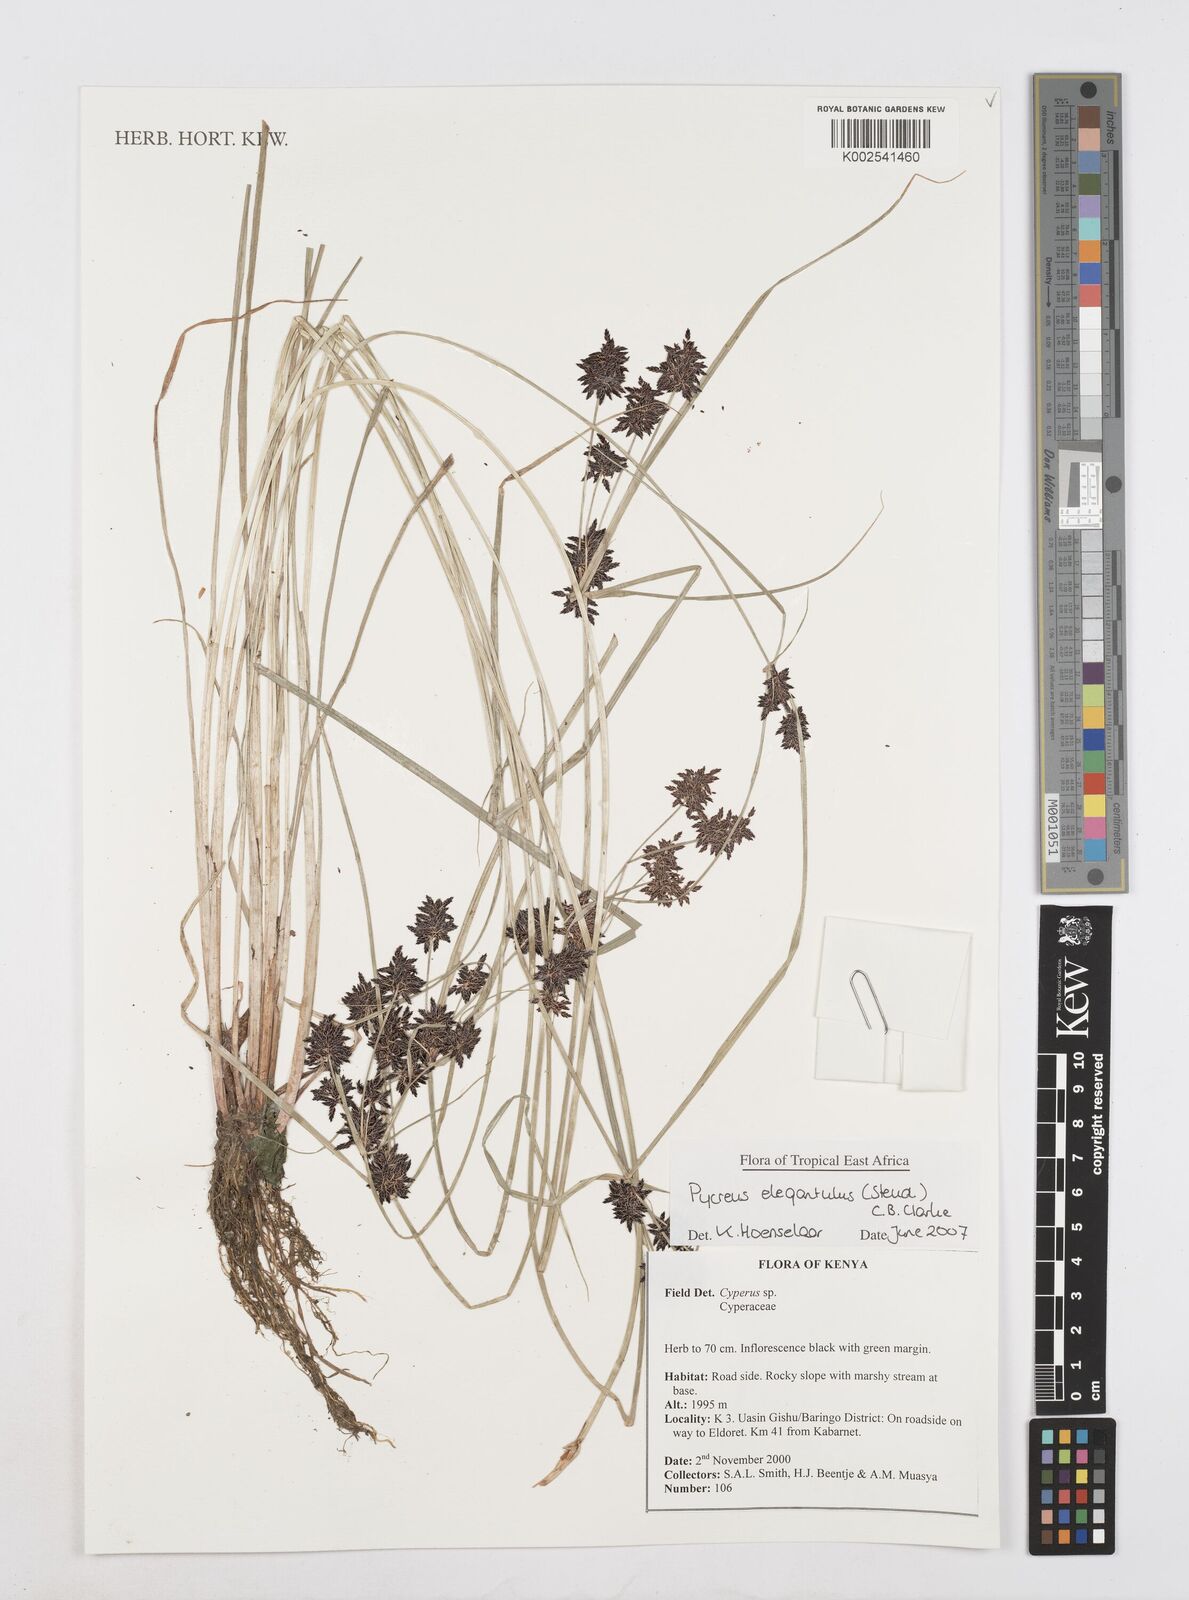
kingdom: Plantae
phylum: Tracheophyta
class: Liliopsida
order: Poales
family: Cyperaceae
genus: Cyperus
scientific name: Cyperus elegantulus
